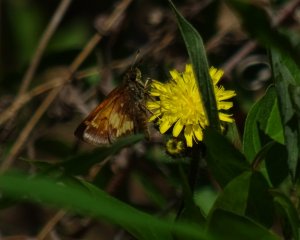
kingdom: Animalia
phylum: Arthropoda
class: Insecta
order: Lepidoptera
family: Hesperiidae
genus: Lon
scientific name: Lon hobomok
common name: Hobomok Skipper
